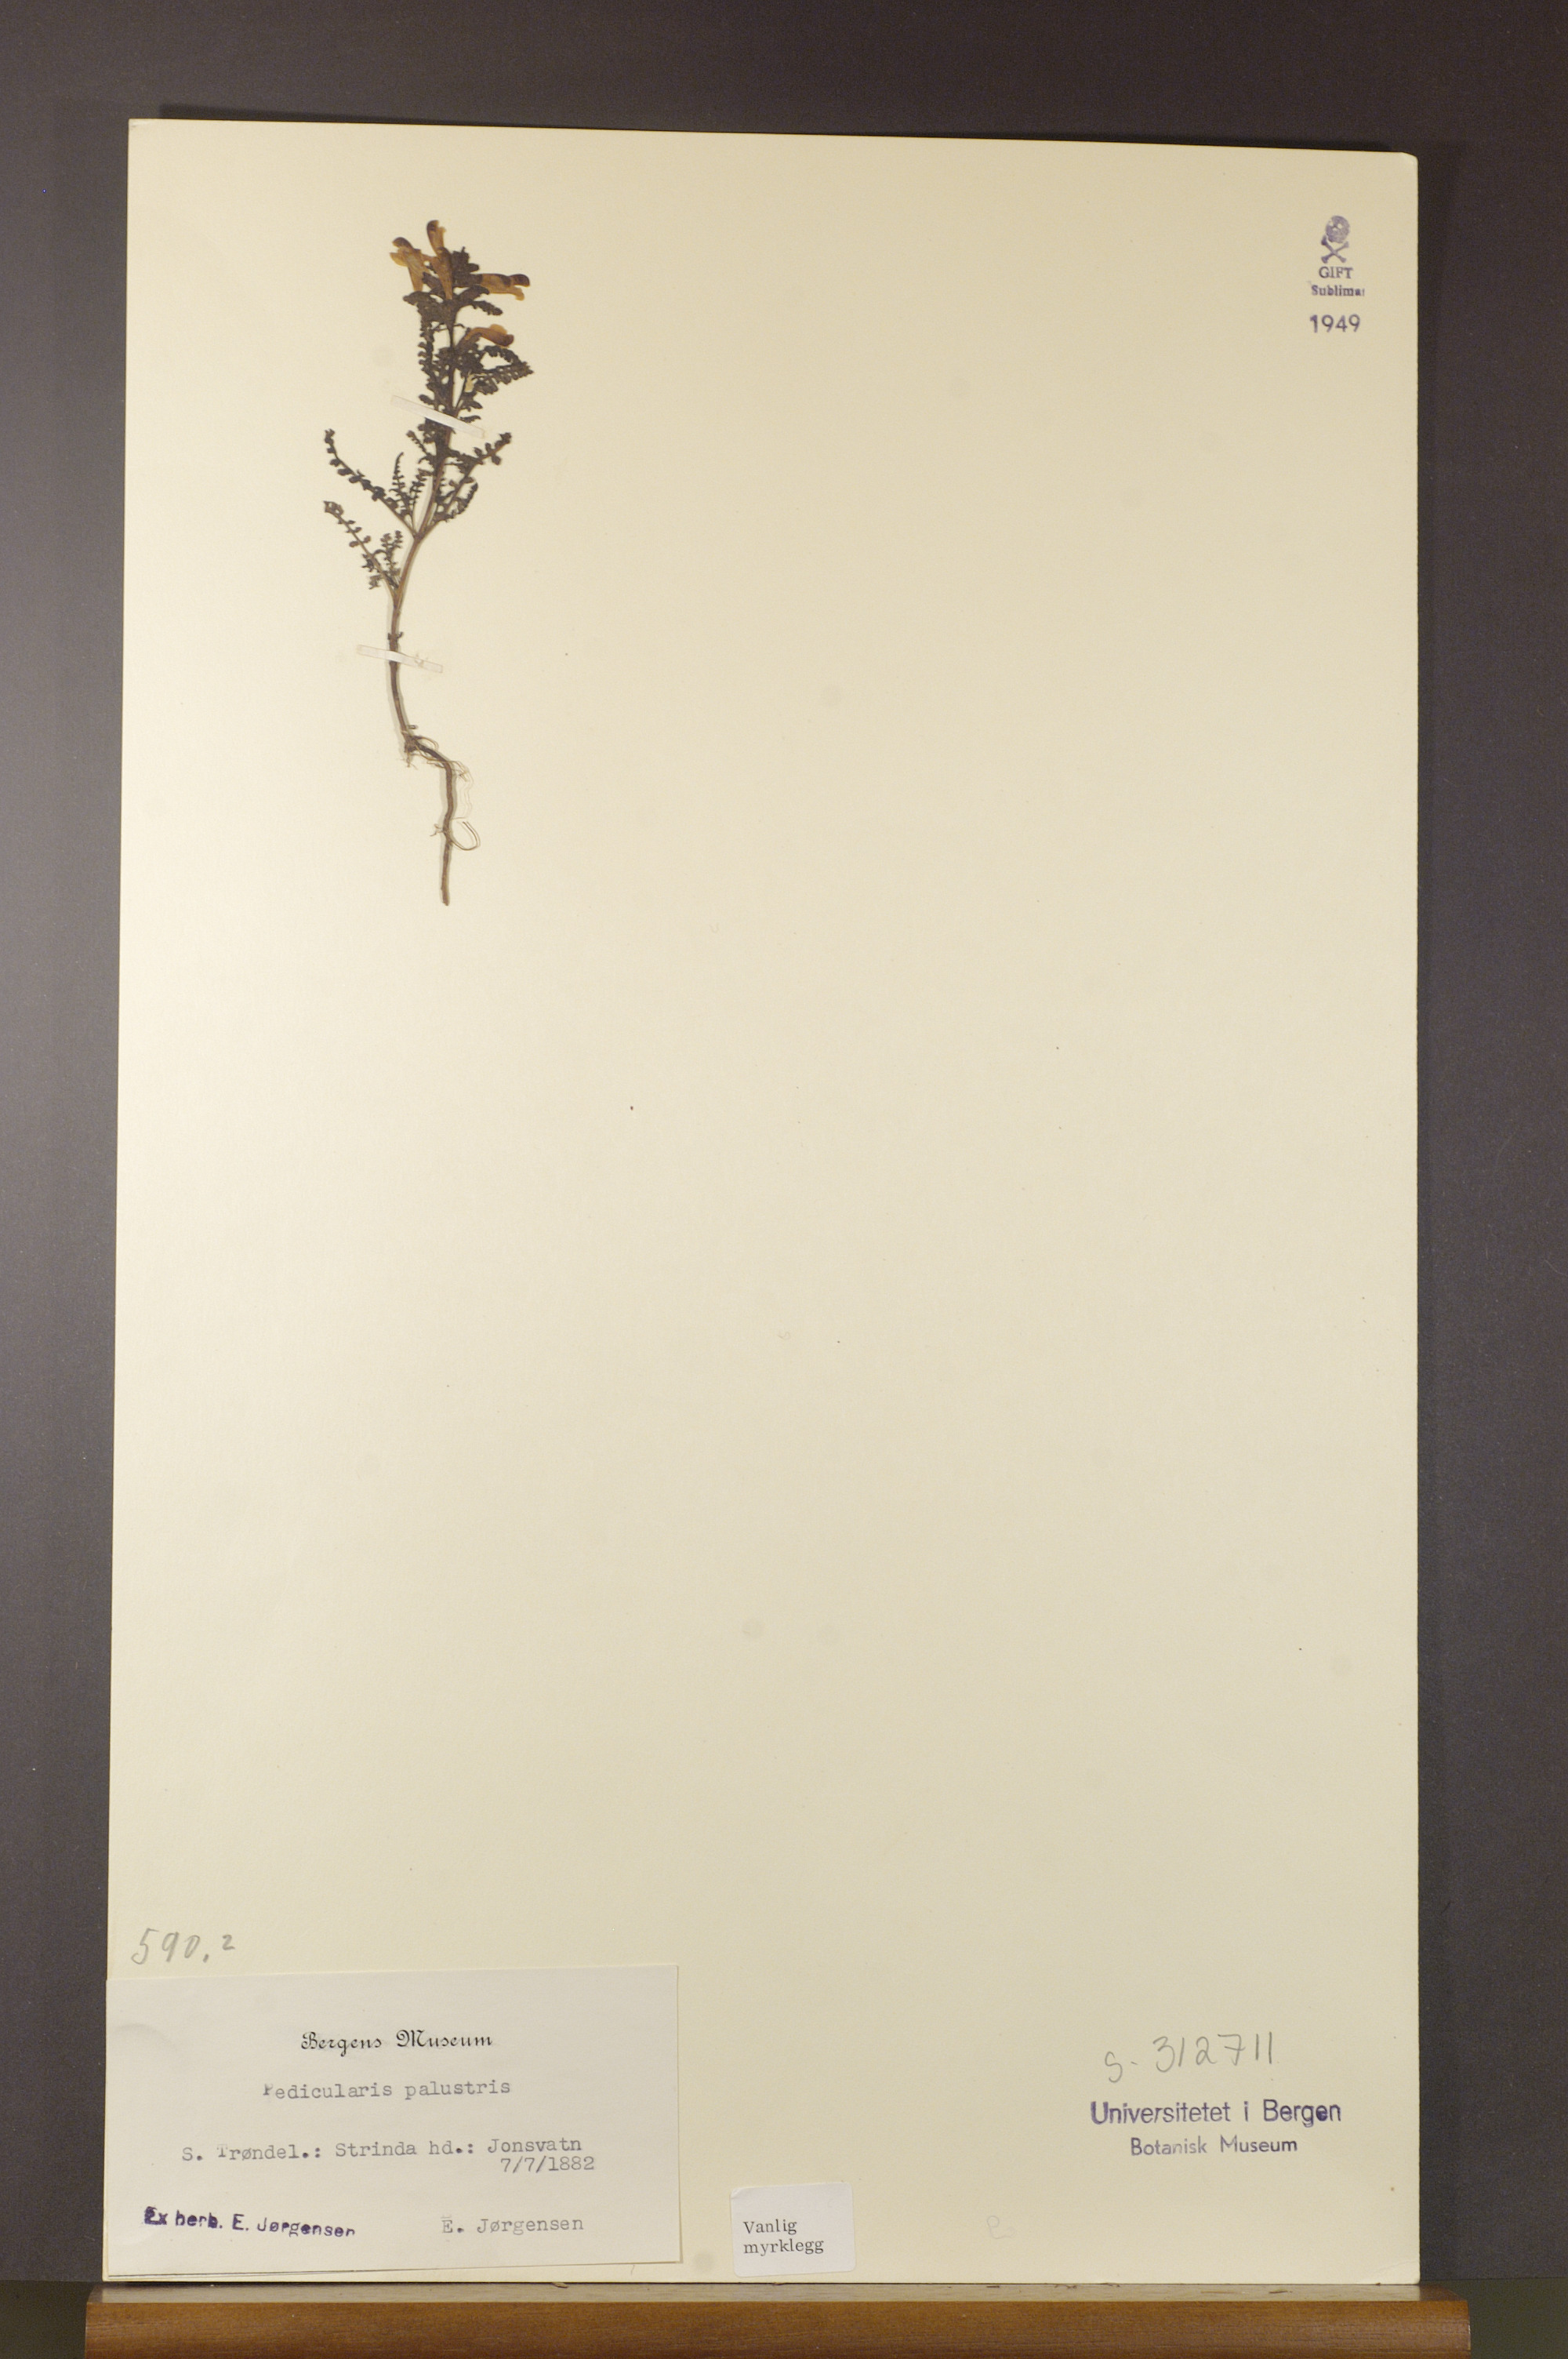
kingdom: Plantae
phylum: Tracheophyta
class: Magnoliopsida
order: Lamiales
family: Orobanchaceae
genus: Pedicularis
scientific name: Pedicularis palustris
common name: Marsh lousewort
